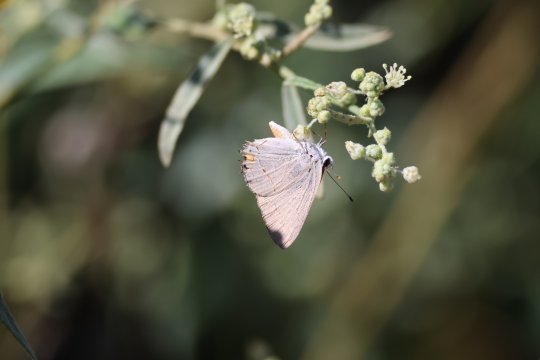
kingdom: Animalia
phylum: Arthropoda
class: Insecta
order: Lepidoptera
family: Lycaenidae
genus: Strymon
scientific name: Strymon melinus
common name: Gray Hairstreak
